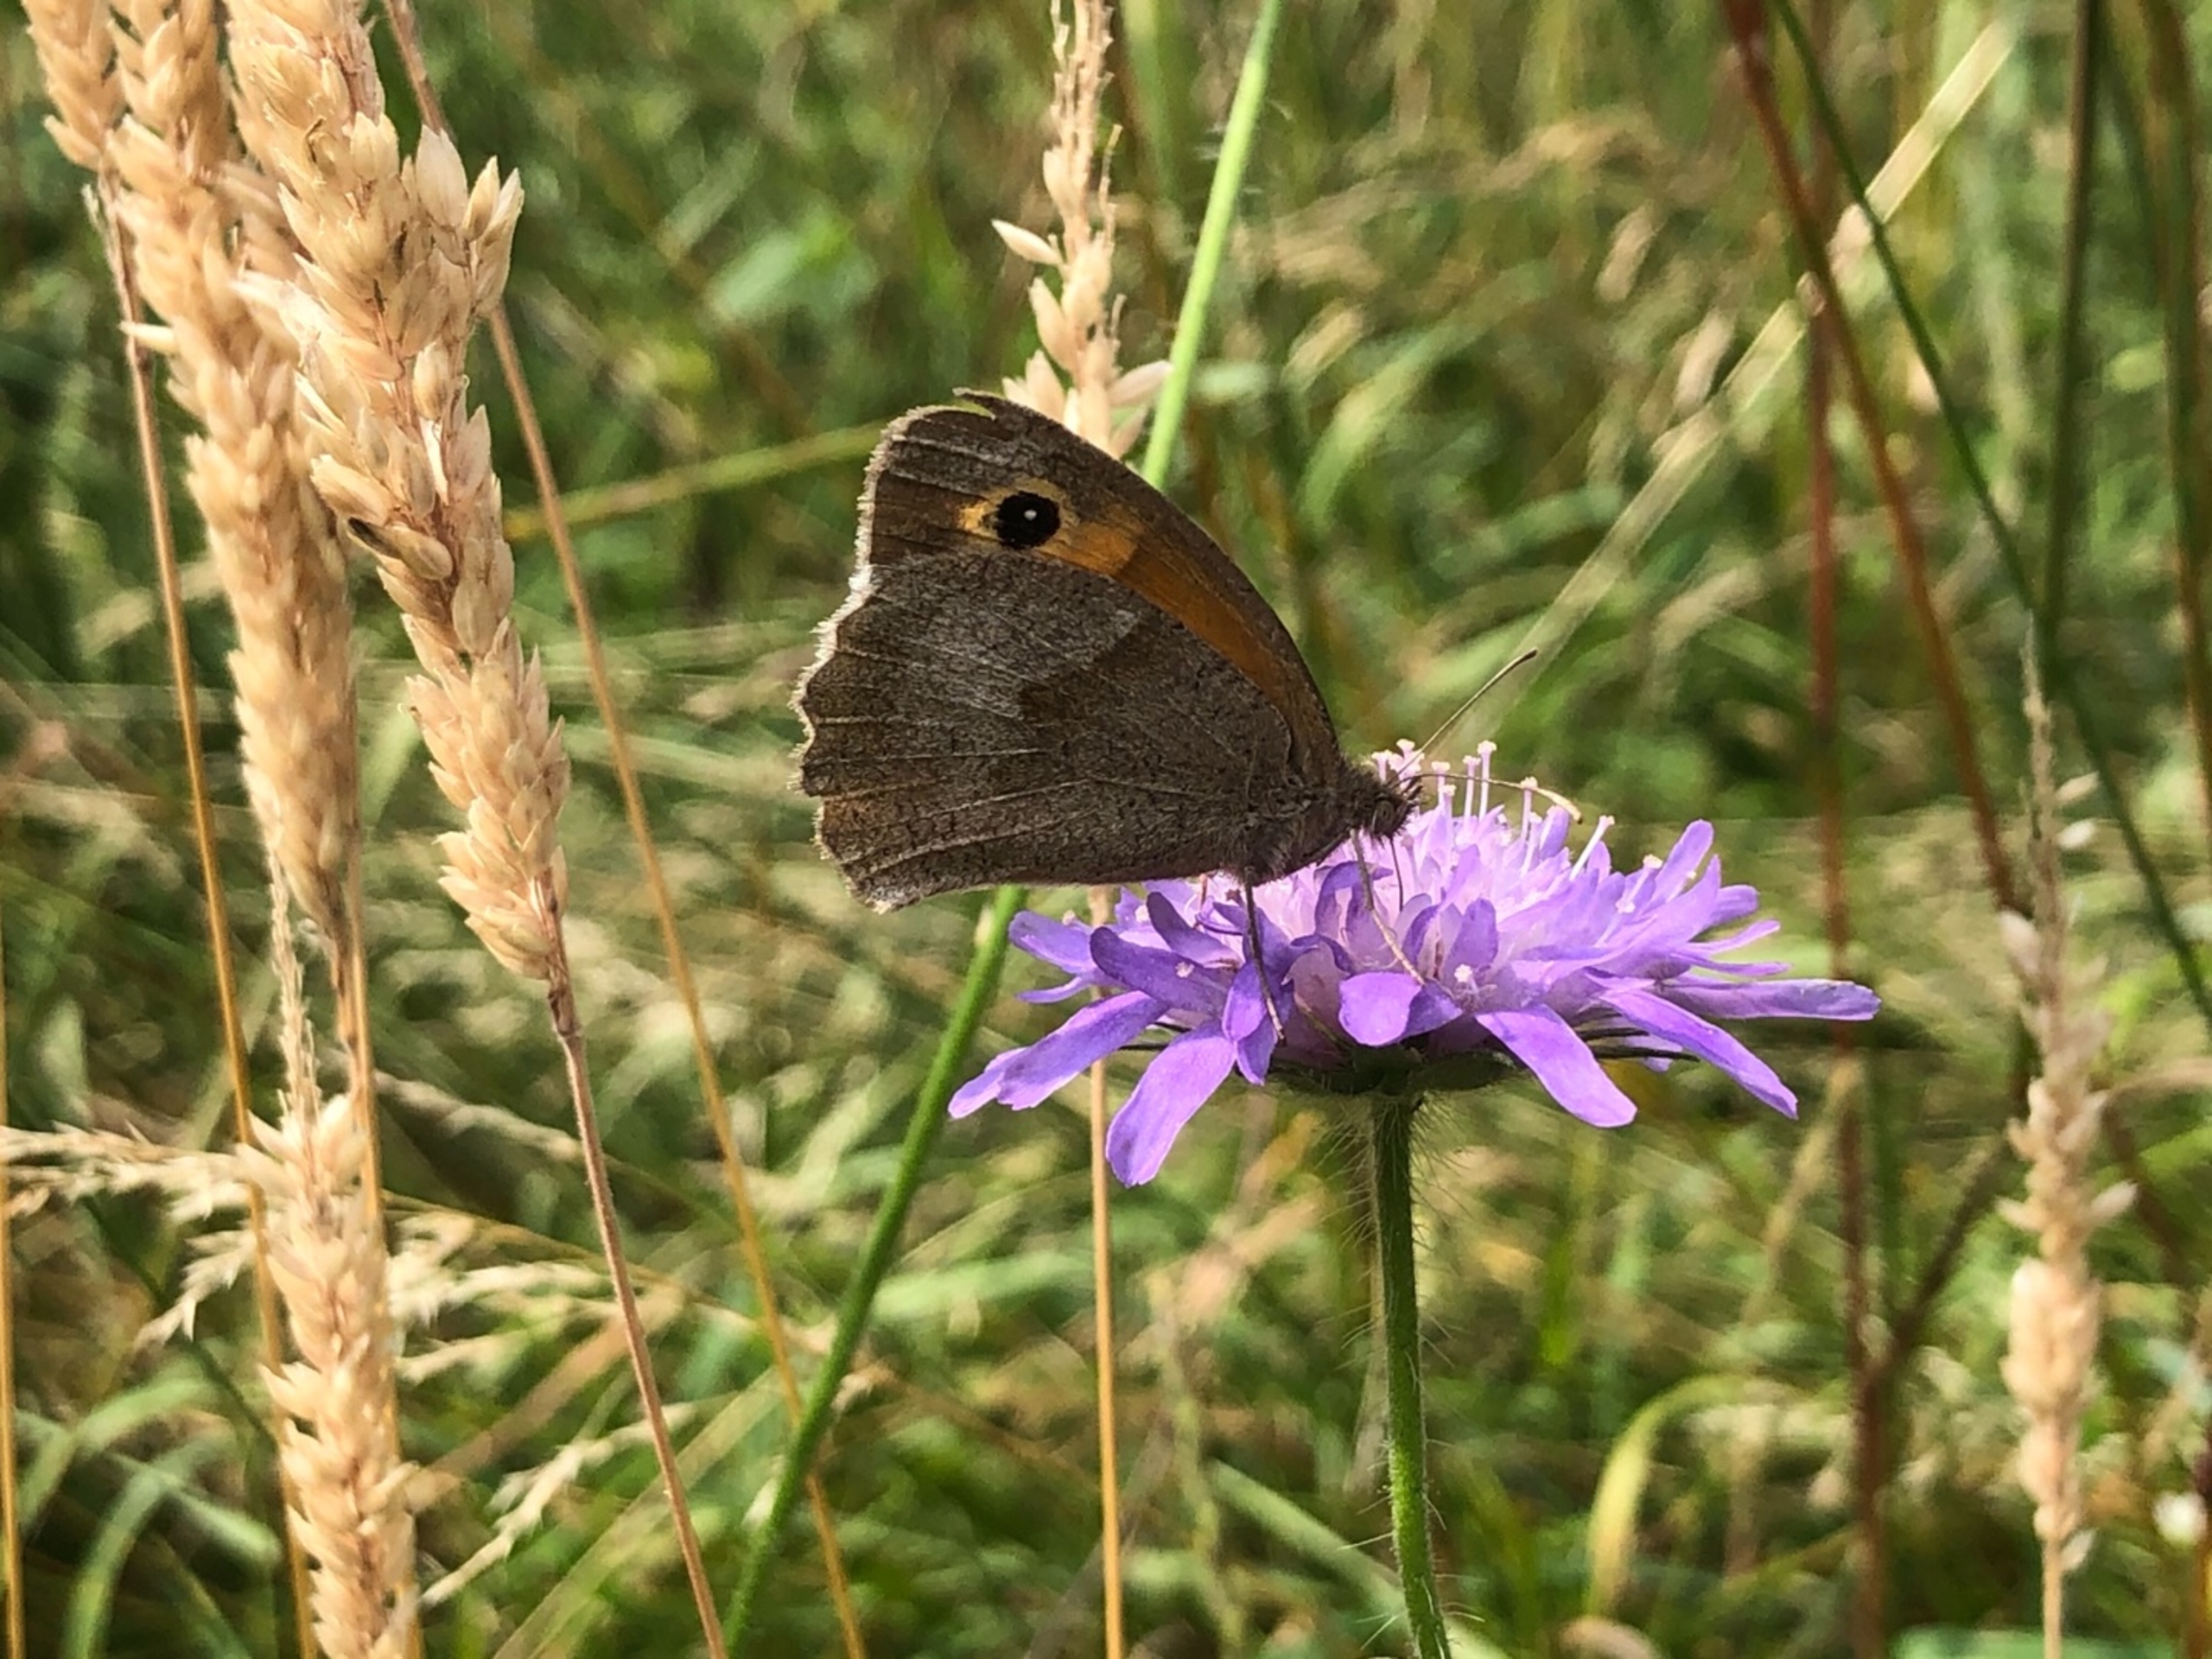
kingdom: Animalia
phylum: Arthropoda
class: Insecta
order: Lepidoptera
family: Nymphalidae
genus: Maniola
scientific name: Maniola jurtina
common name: Græsrandøje
